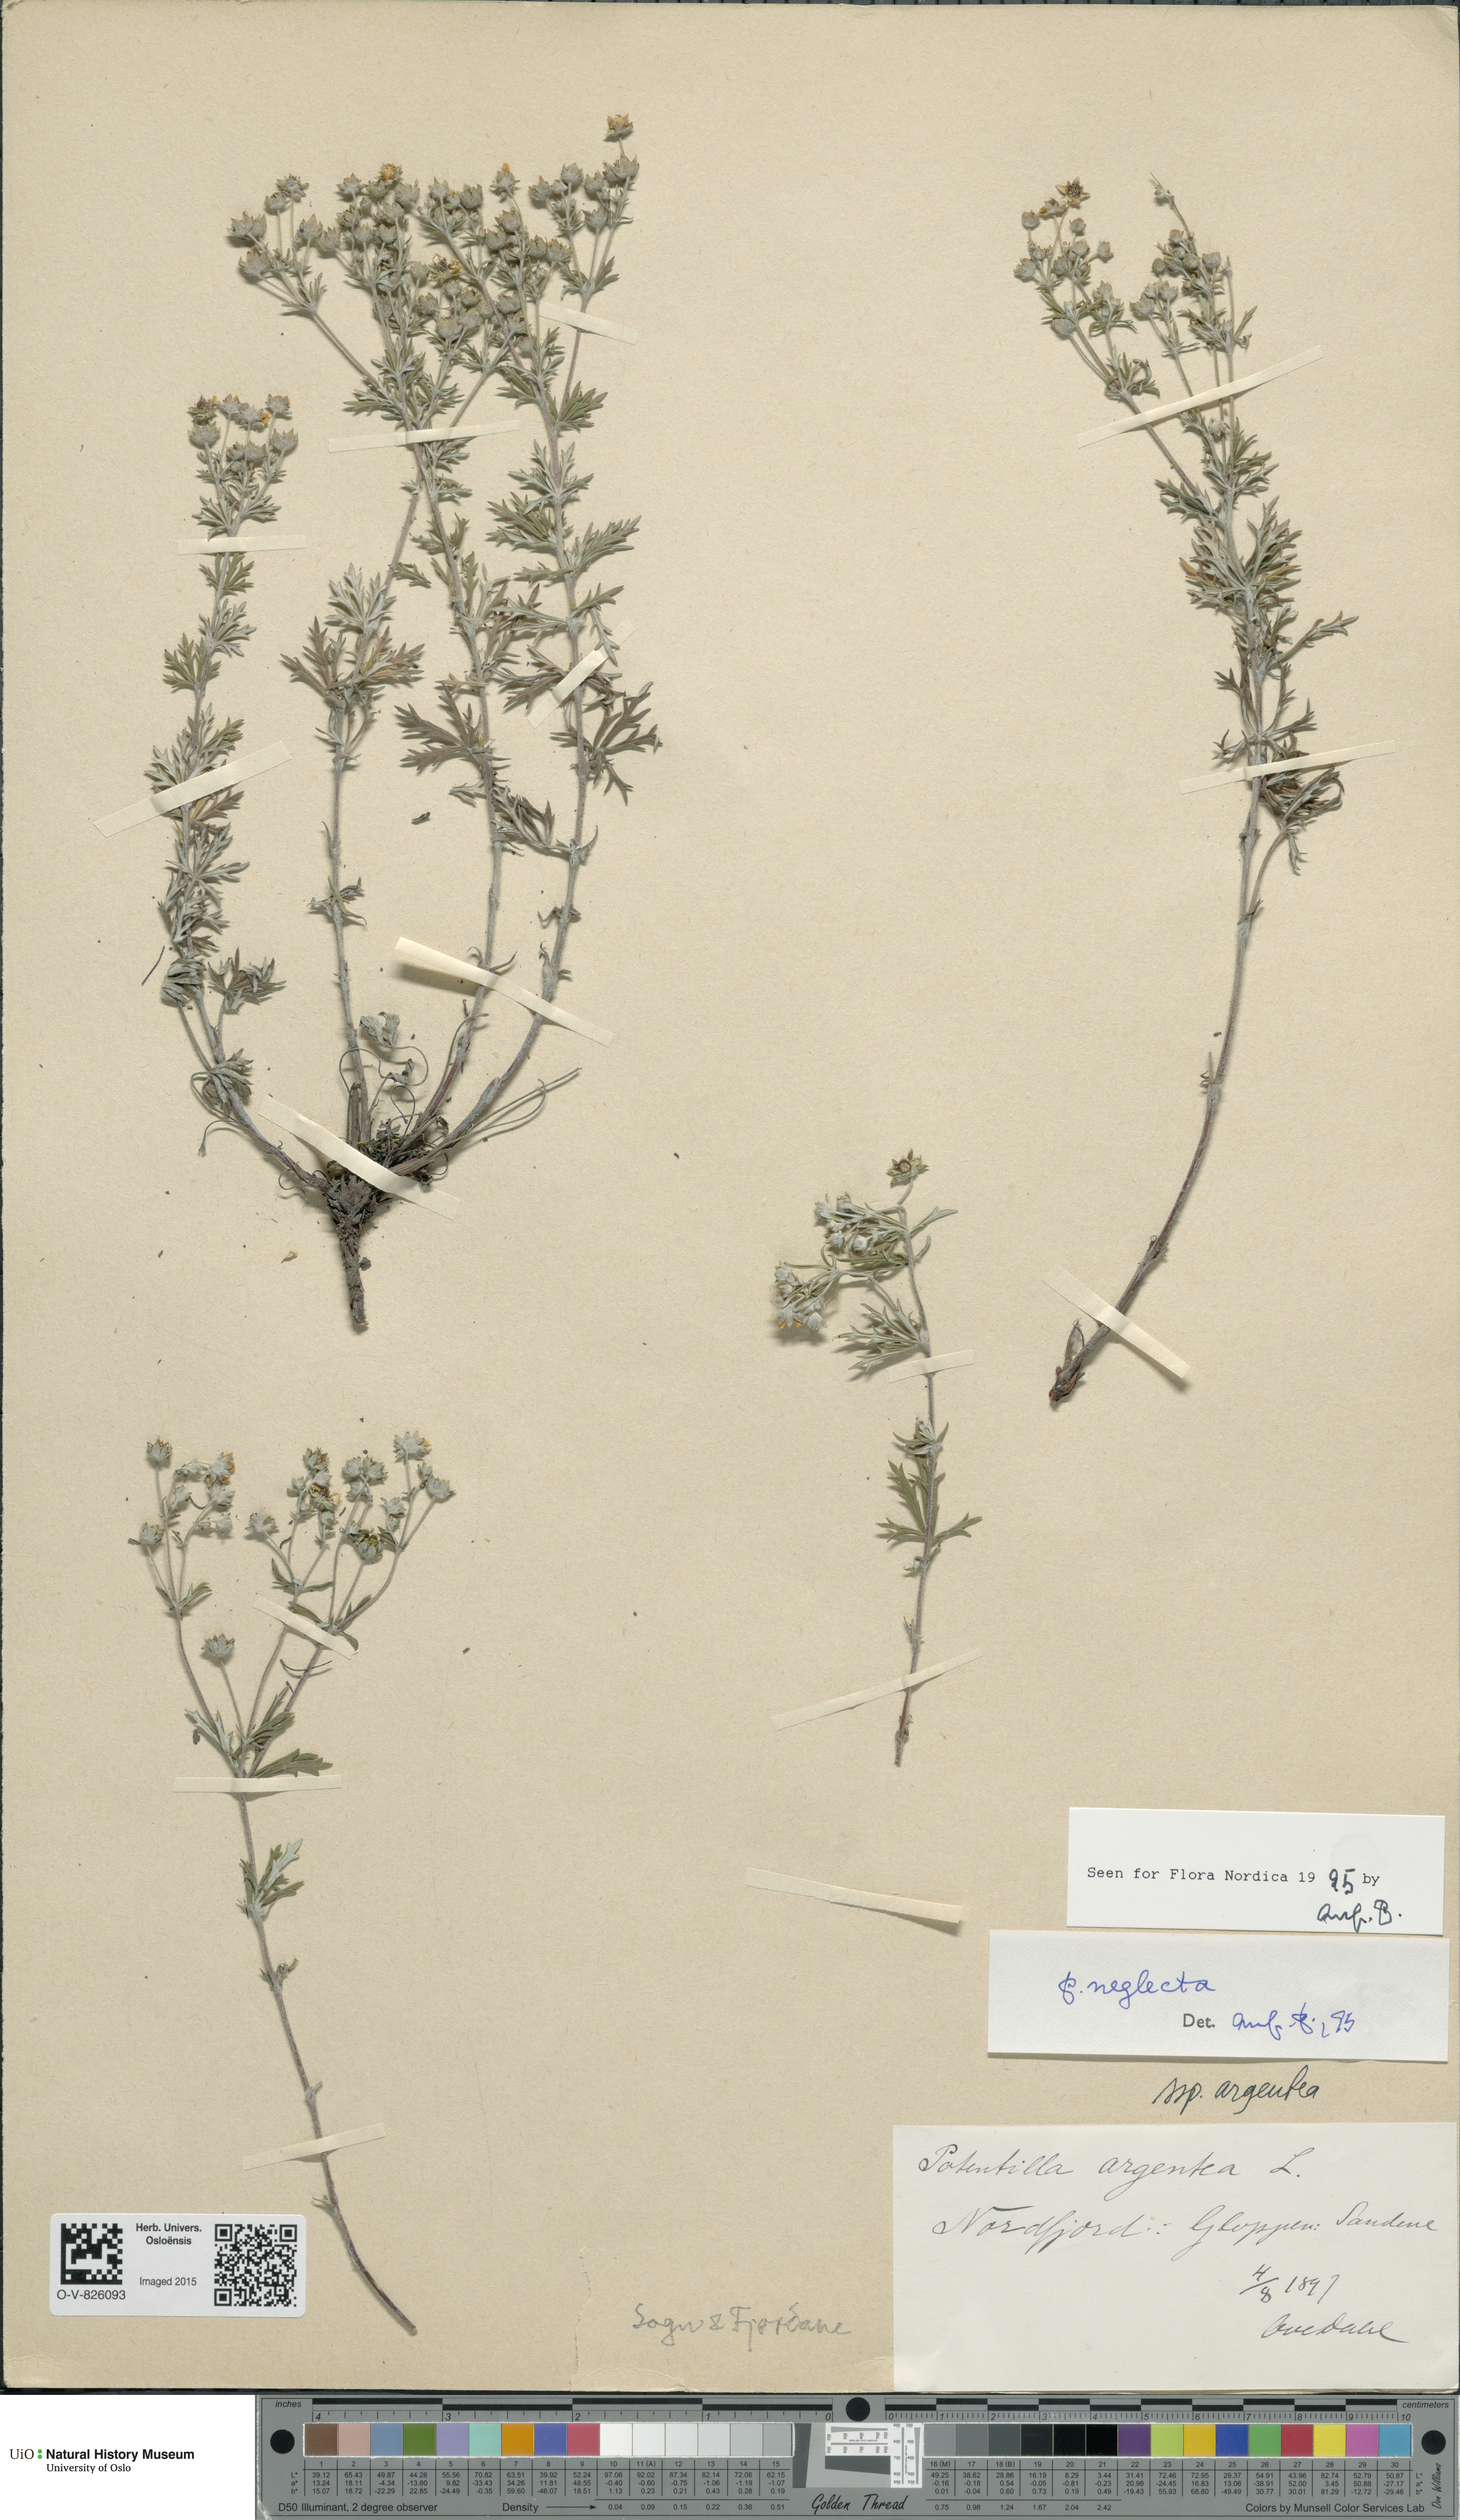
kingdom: Plantae
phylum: Tracheophyta
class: Magnoliopsida
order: Rosales
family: Rosaceae
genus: Potentilla
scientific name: Potentilla neglecta
